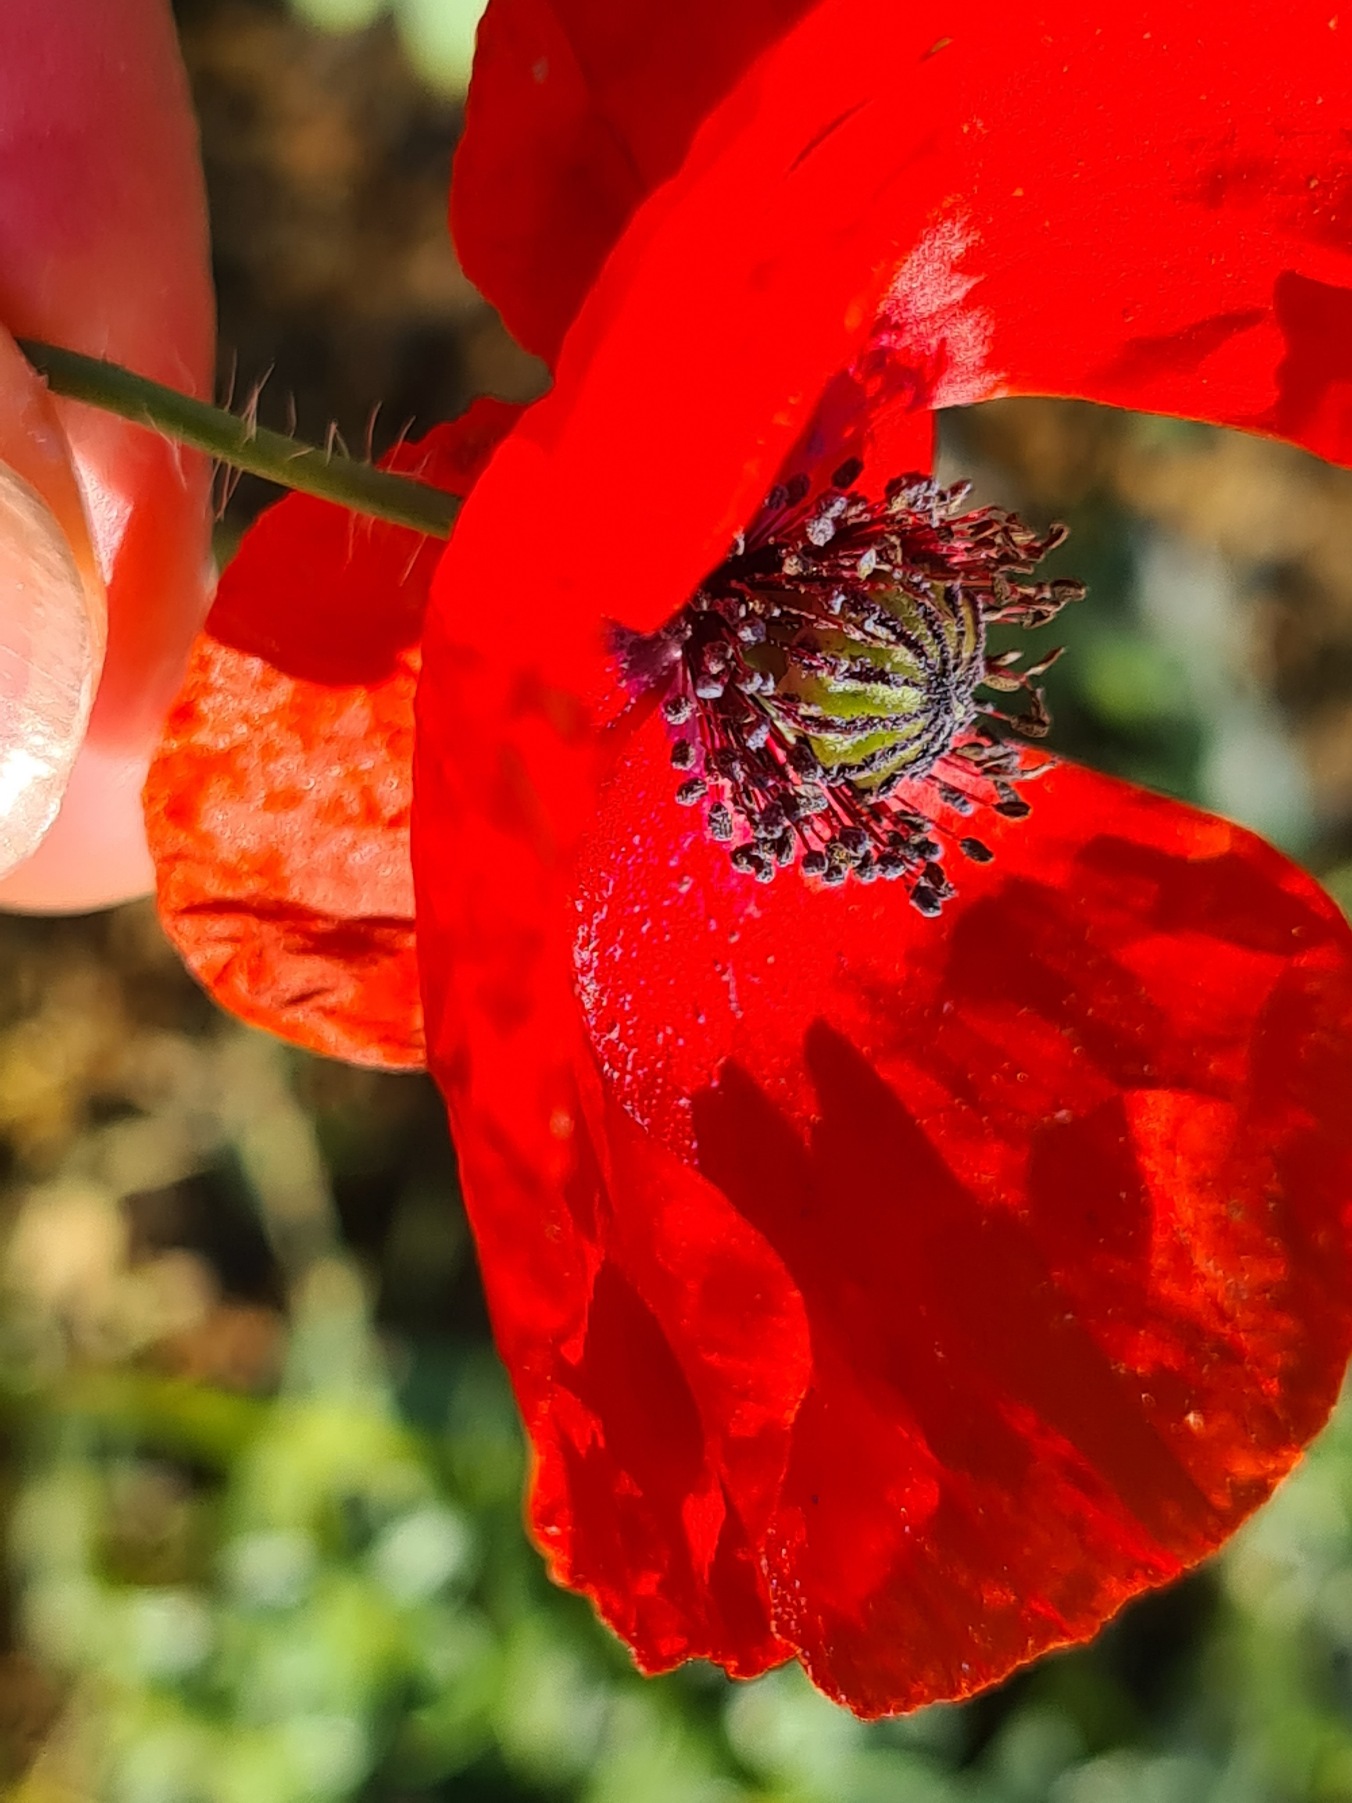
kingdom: Plantae
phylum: Tracheophyta
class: Magnoliopsida
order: Ranunculales
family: Papaveraceae
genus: Papaver
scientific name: Papaver rhoeas
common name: Korn-valmue
